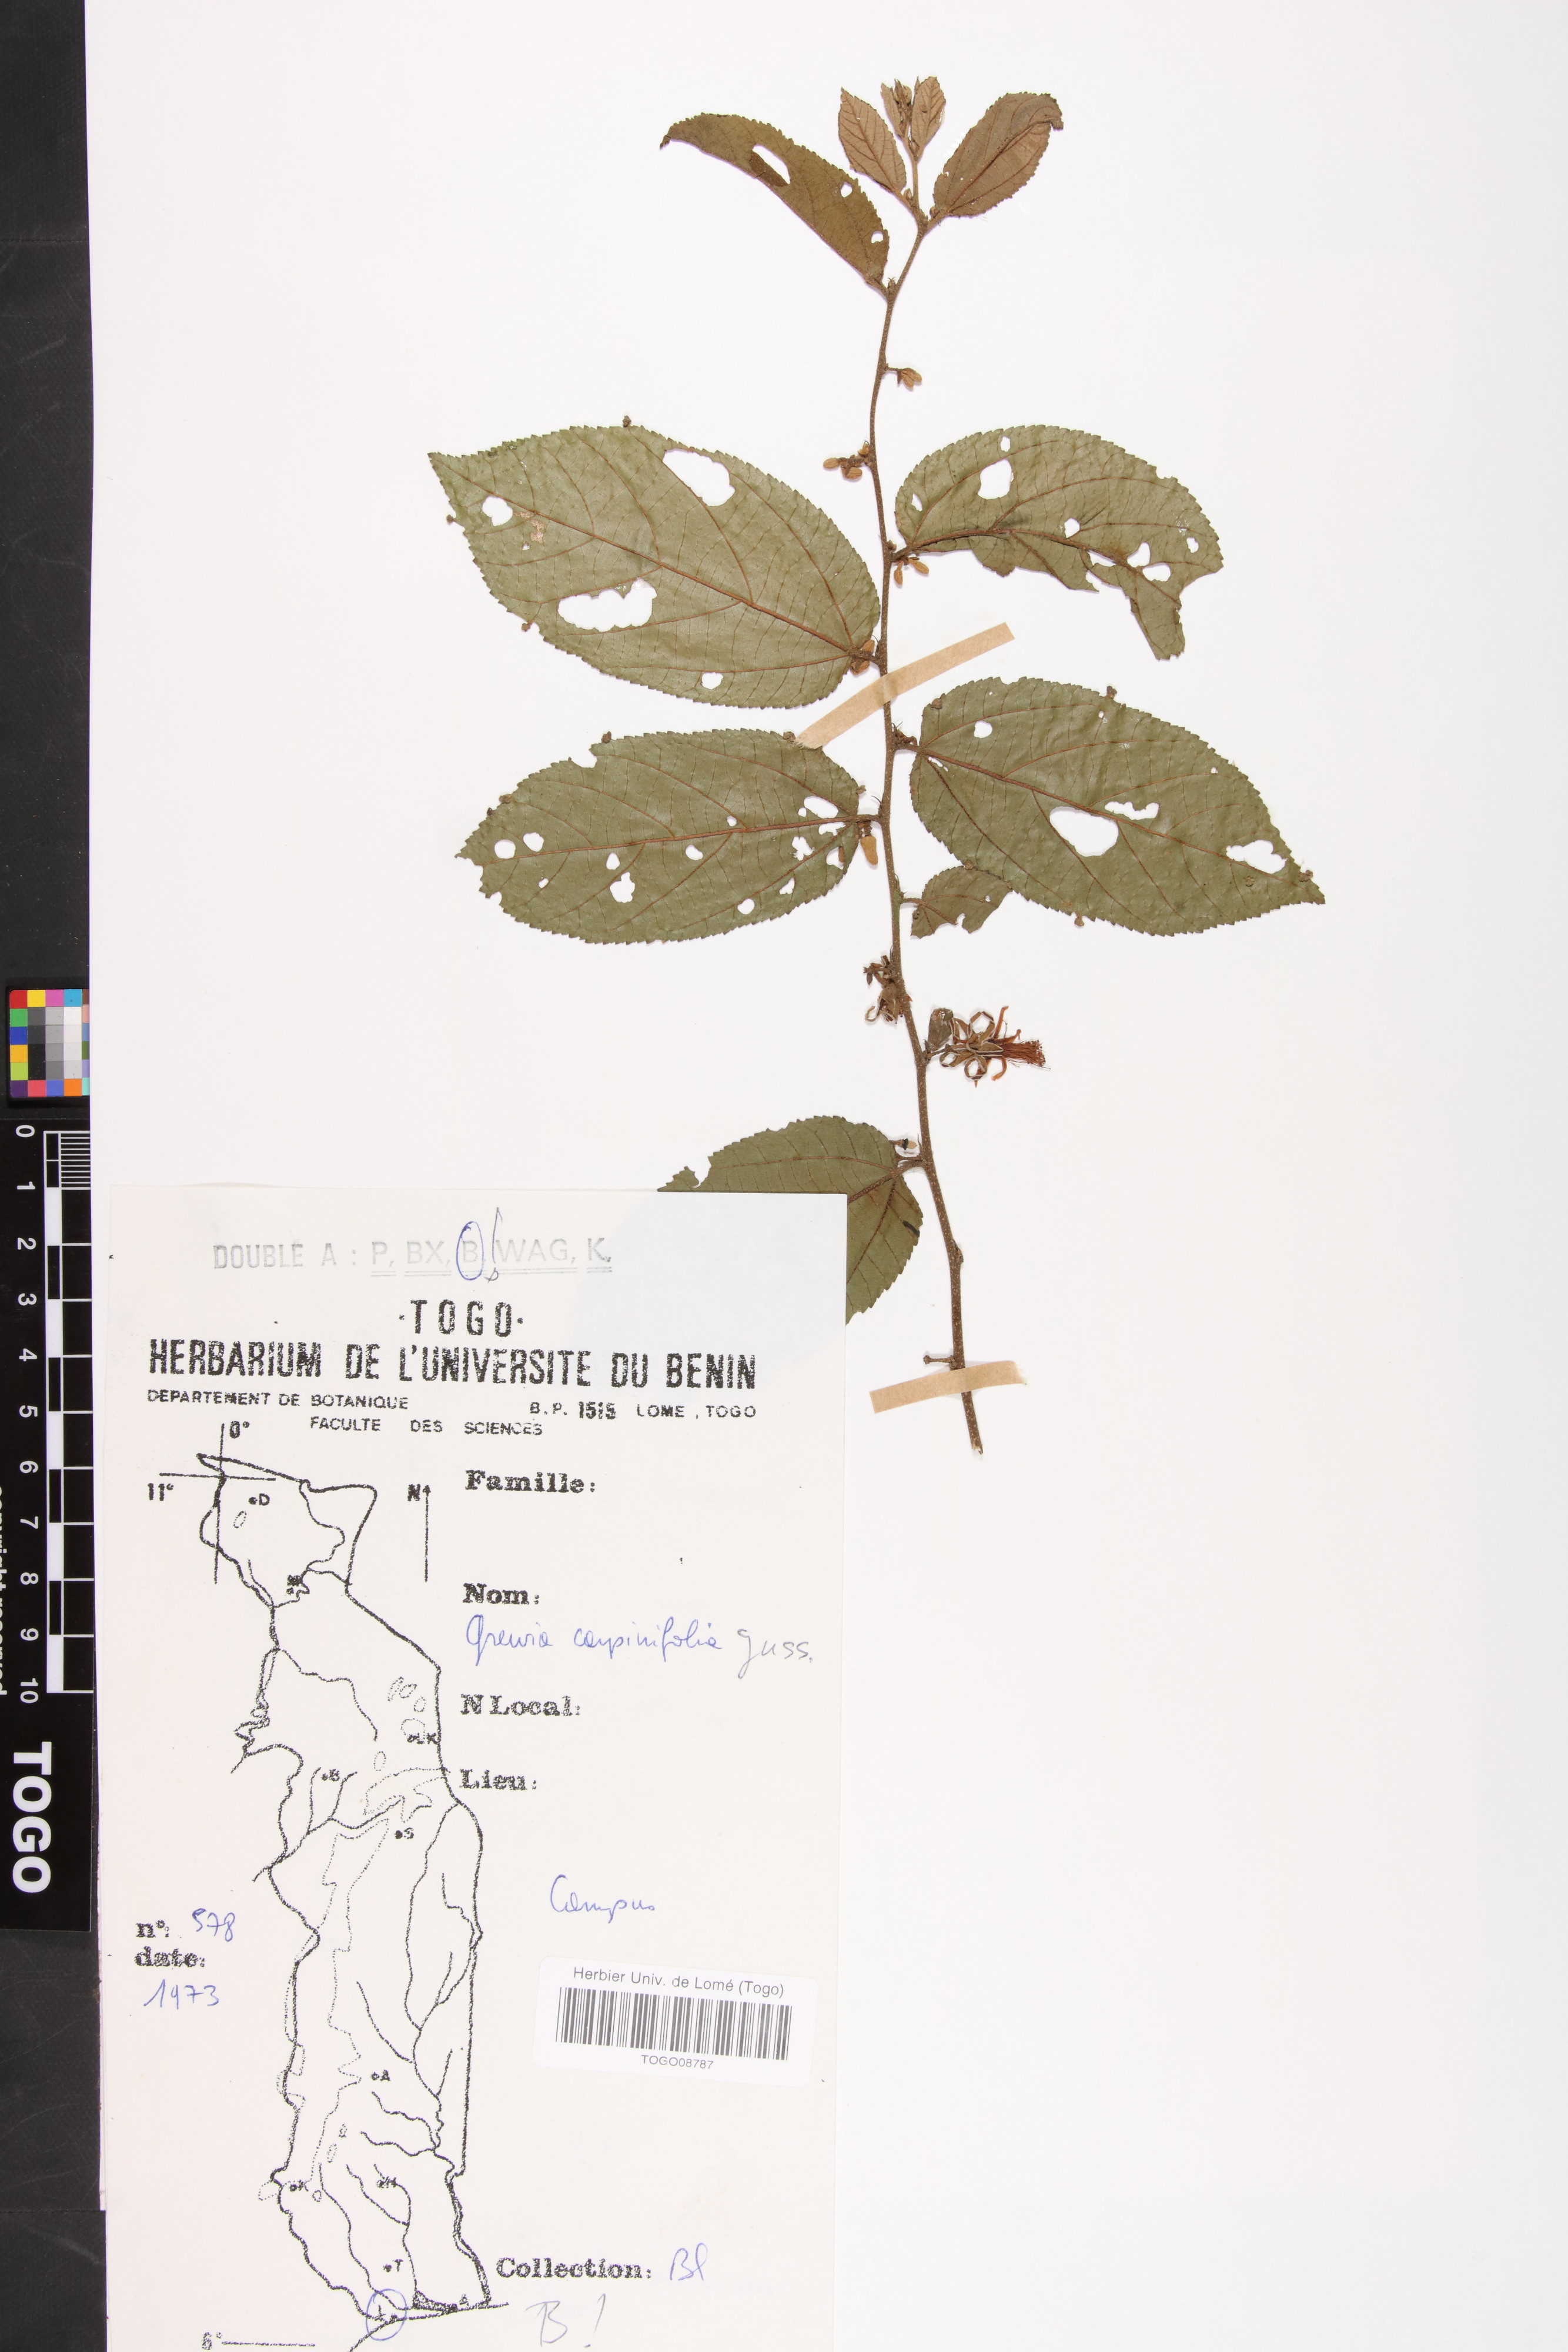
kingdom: Plantae
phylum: Tracheophyta
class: Magnoliopsida
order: Malvales
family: Malvaceae
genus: Grewia
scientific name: Grewia carpinifolia
